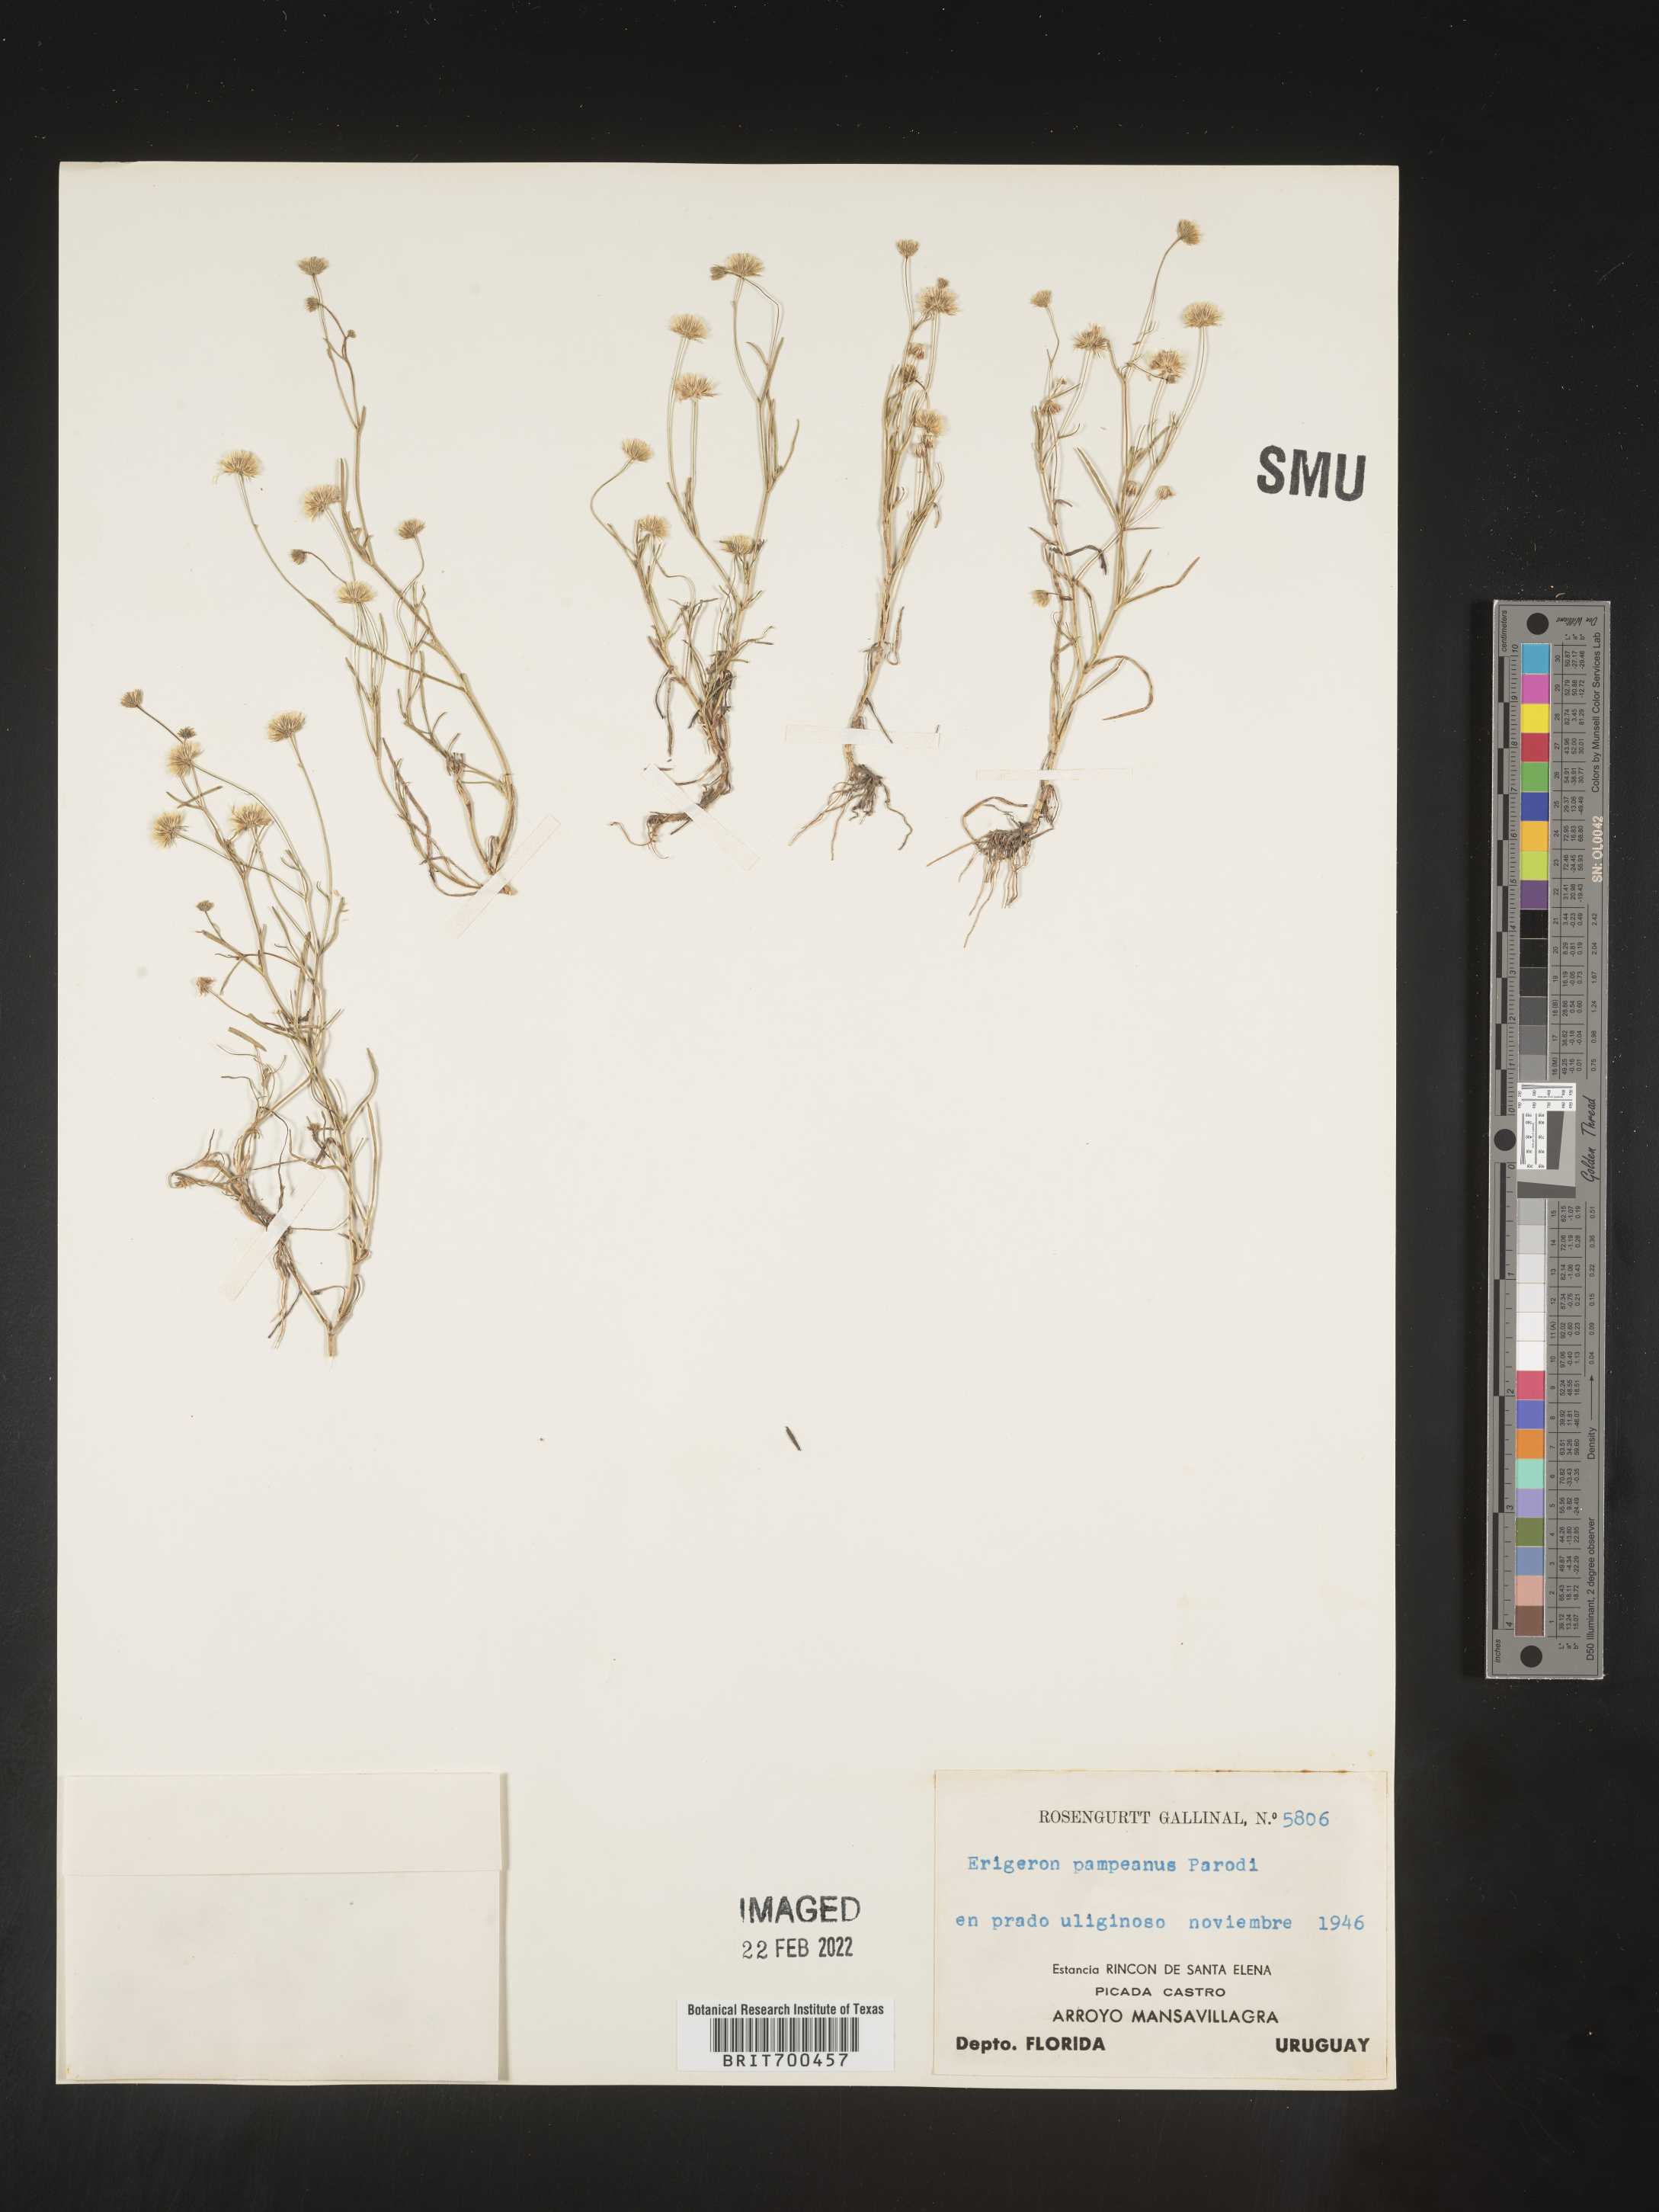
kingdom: Plantae
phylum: Tracheophyta
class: Magnoliopsida
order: Asterales
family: Asteraceae
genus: Erigeron
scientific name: Erigeron
